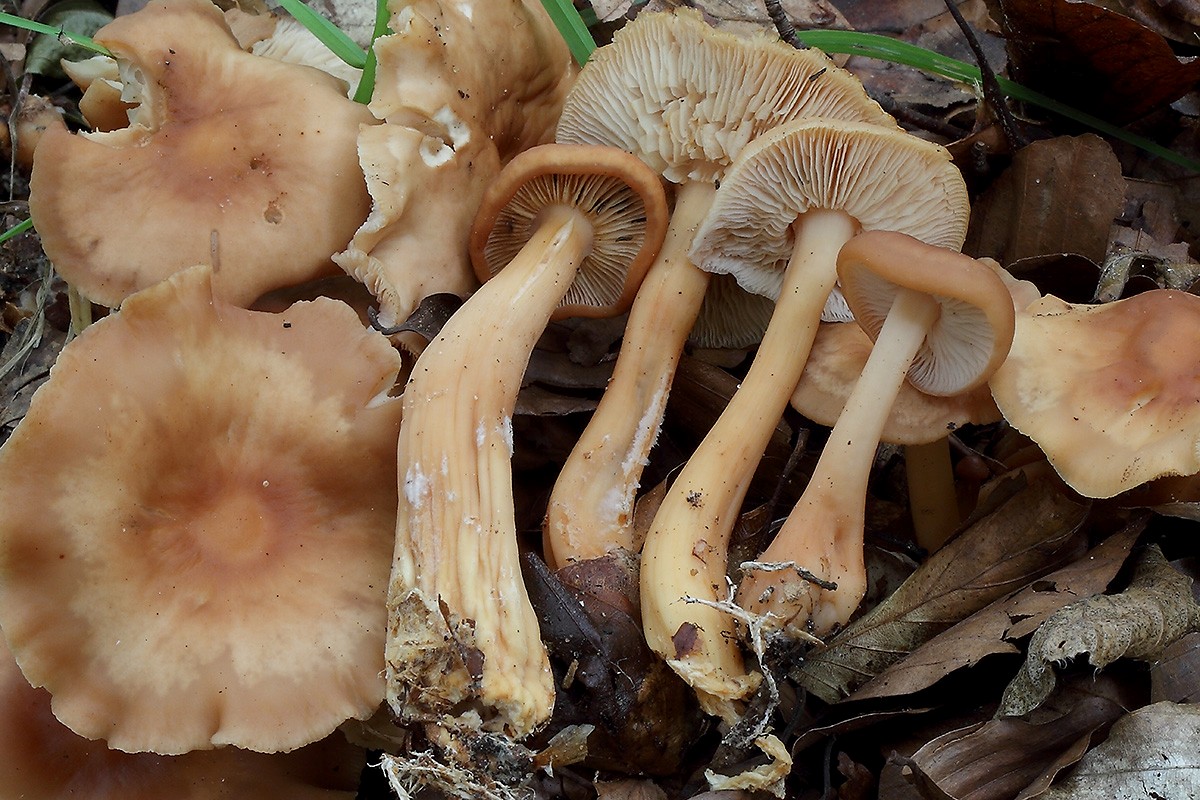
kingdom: Fungi
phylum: Basidiomycota
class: Agaricomycetes
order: Agaricales
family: Omphalotaceae
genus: Gymnopus
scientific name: Gymnopus dryophilus
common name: løv-fladhat
